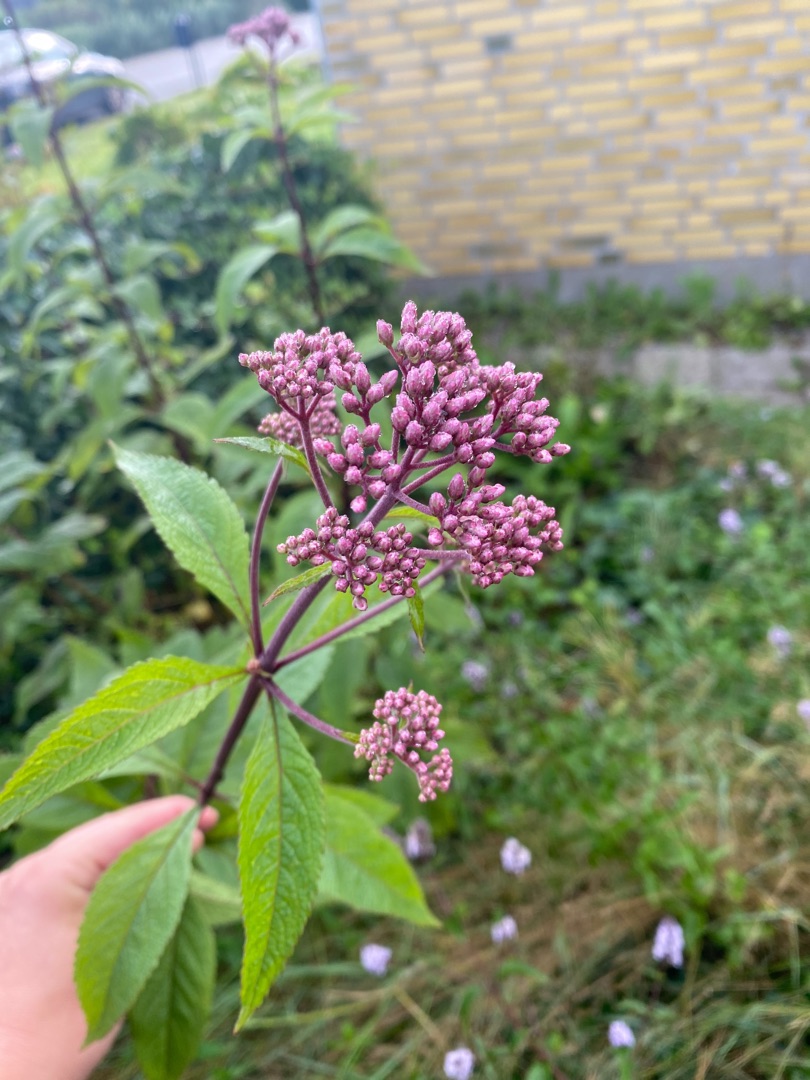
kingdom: Plantae
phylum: Tracheophyta
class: Magnoliopsida
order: Asterales
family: Asteraceae
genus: Eutrochium
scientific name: Eutrochium purpureum
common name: Rød hjortetrøst
